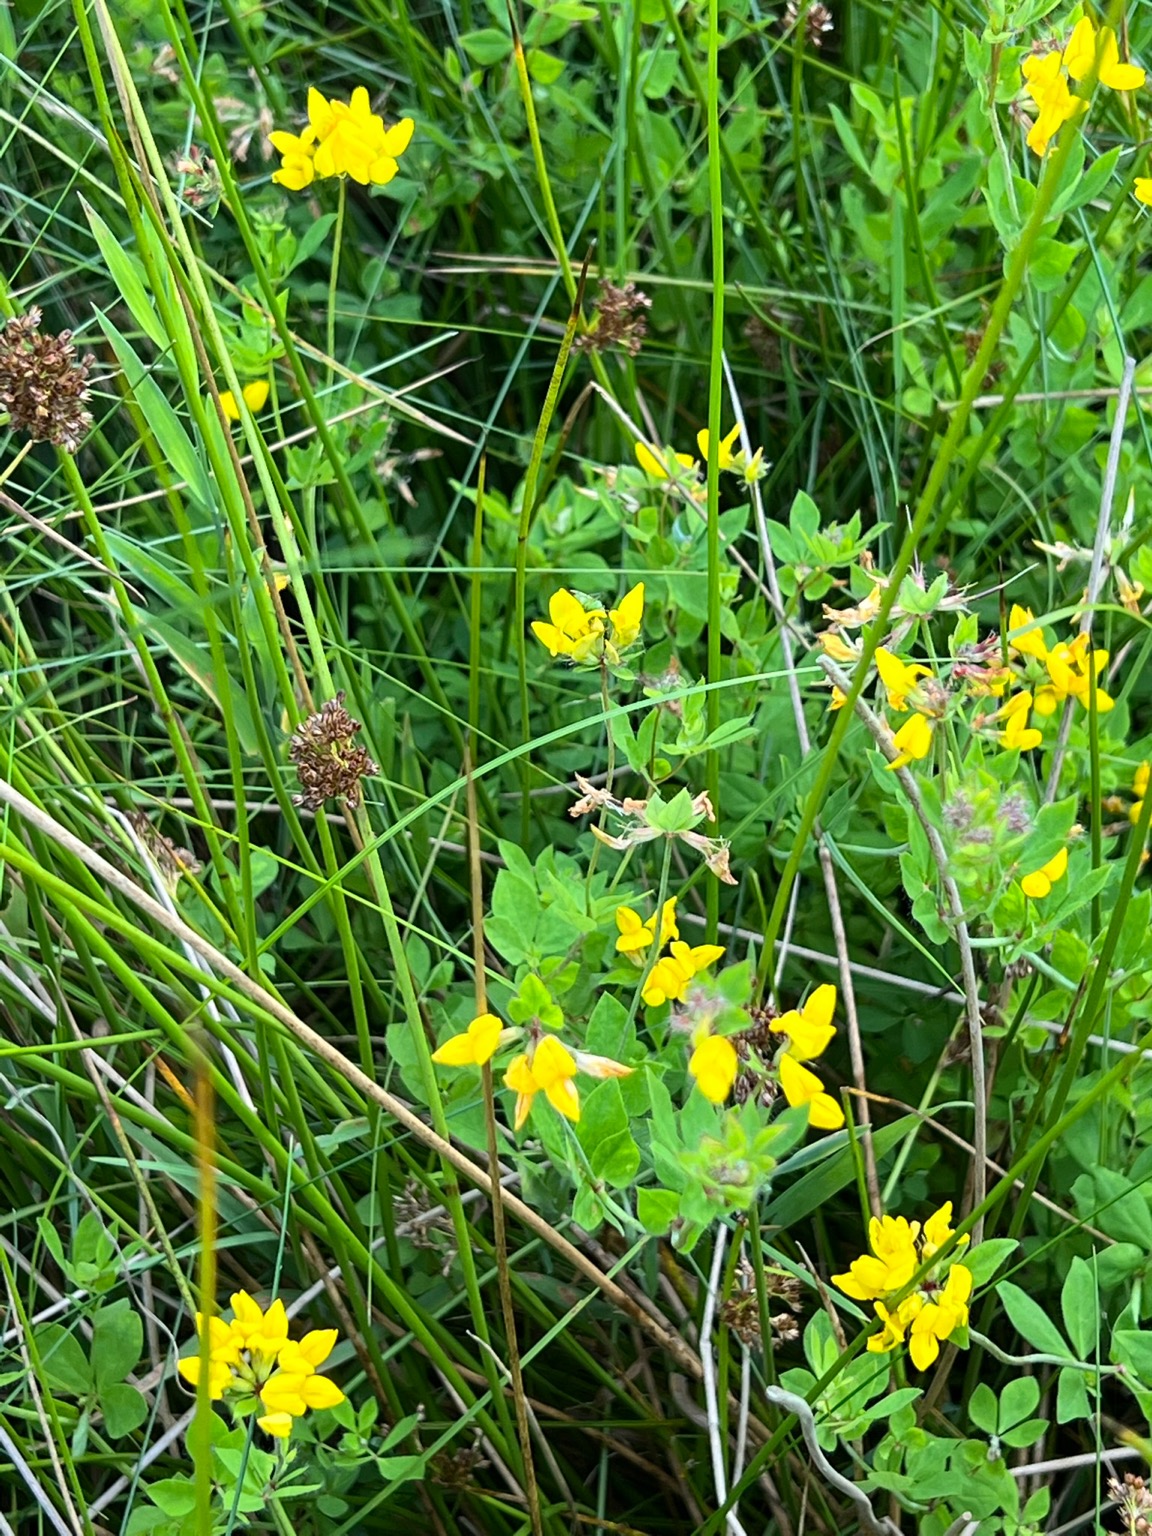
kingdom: Plantae
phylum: Tracheophyta
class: Magnoliopsida
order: Fabales
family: Fabaceae
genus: Lotus
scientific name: Lotus corniculatus
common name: Almindelig kællingetand
